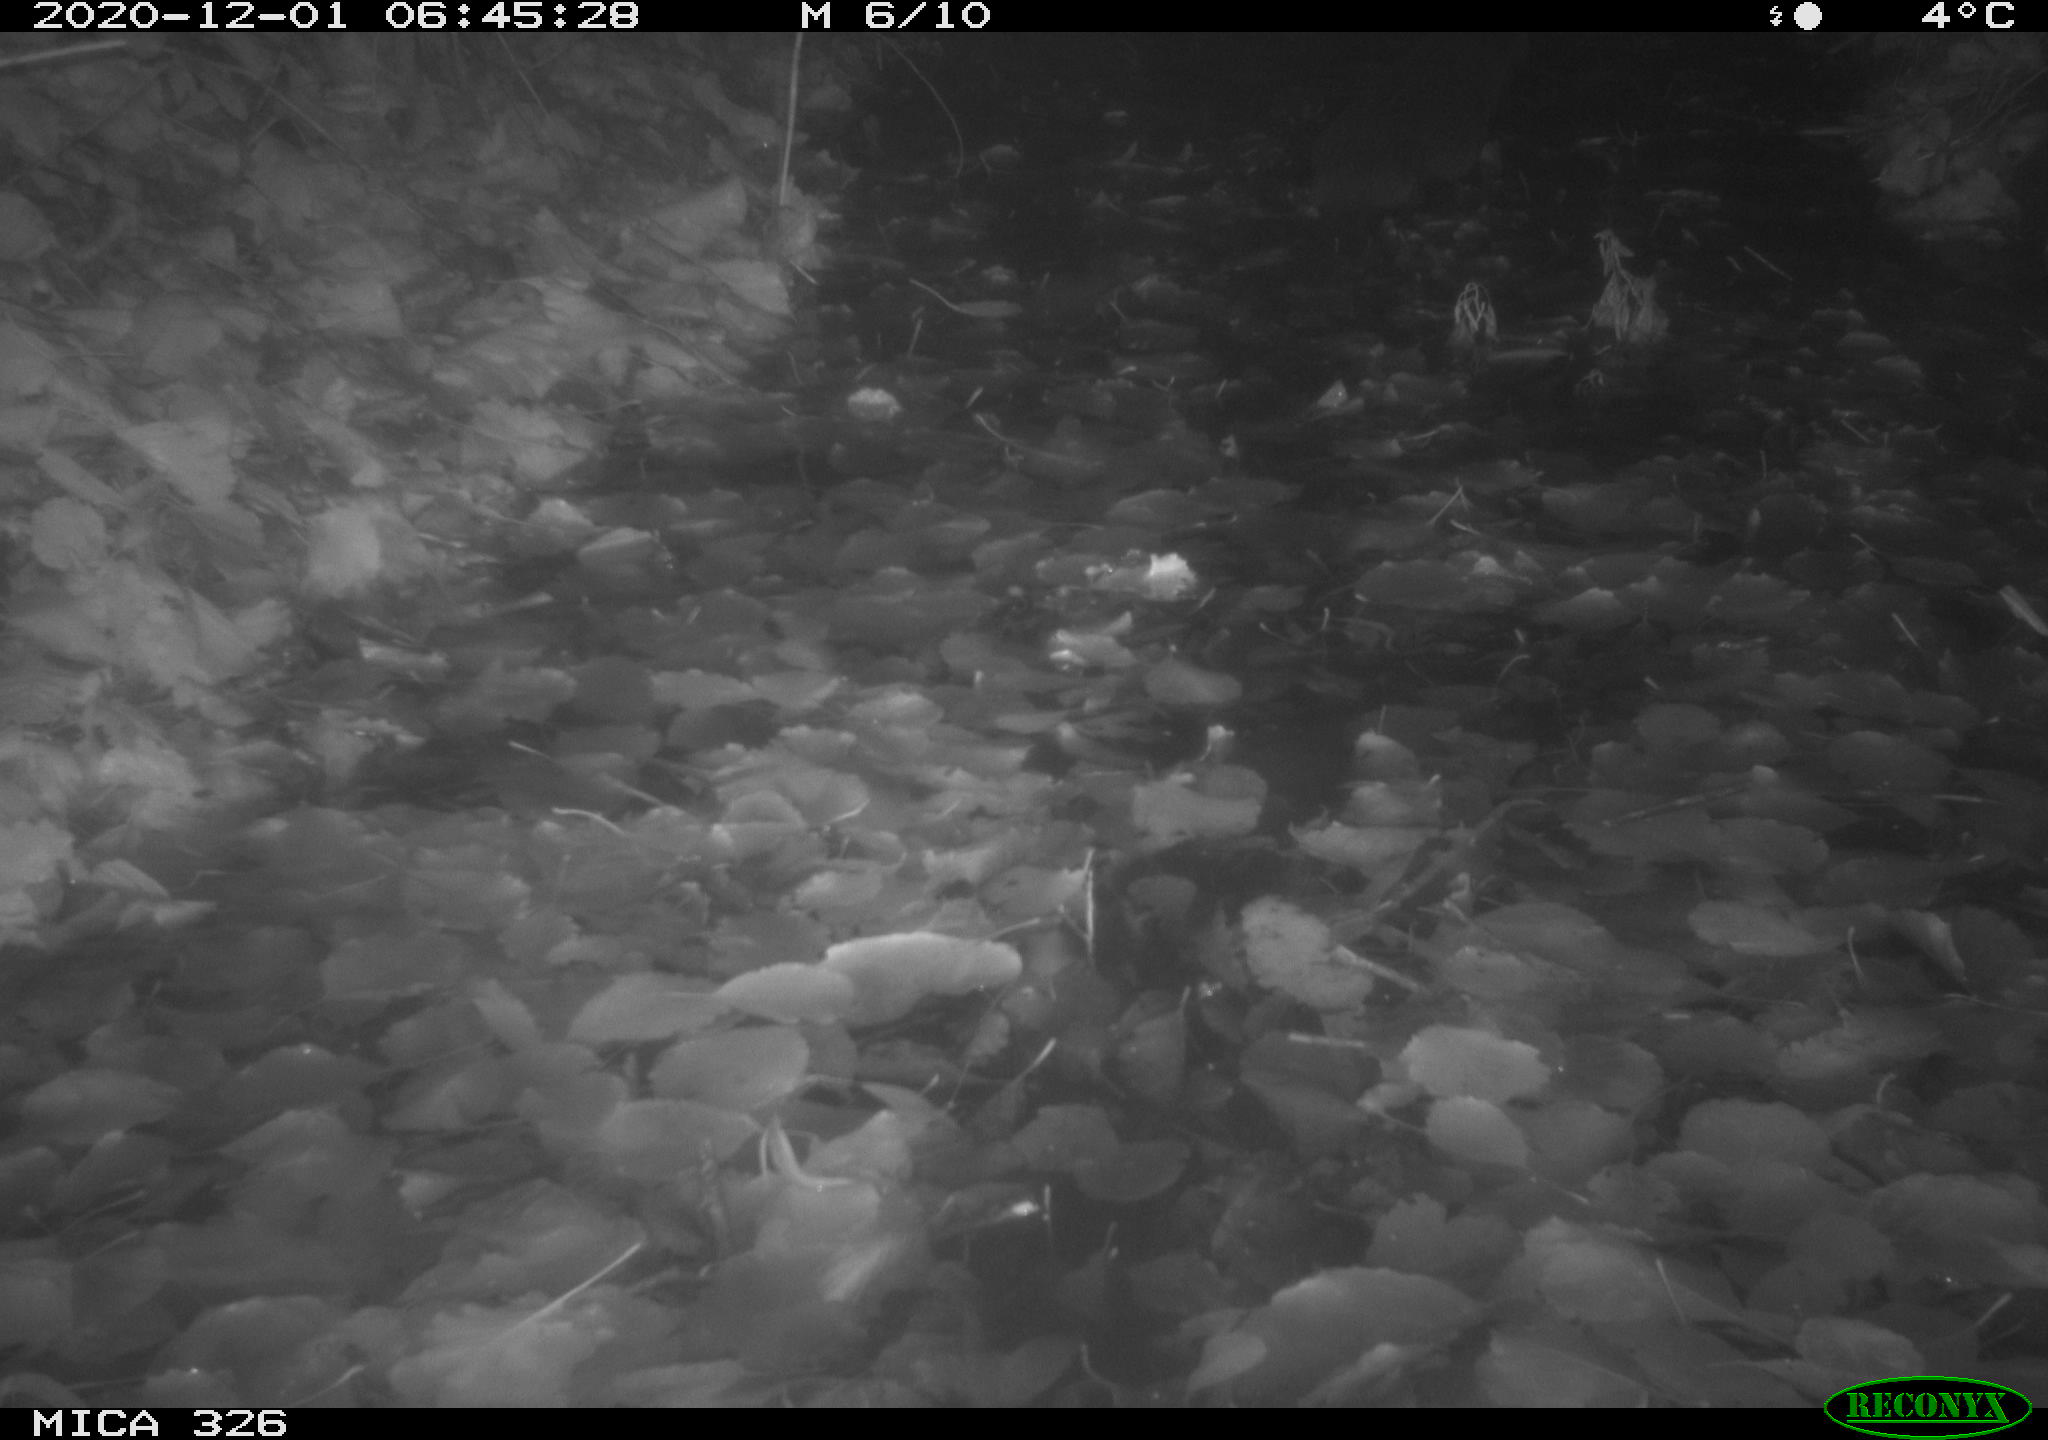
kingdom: Animalia
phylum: Chordata
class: Mammalia
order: Carnivora
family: Mustelidae
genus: Lutra
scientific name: Lutra lutra
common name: European otter
